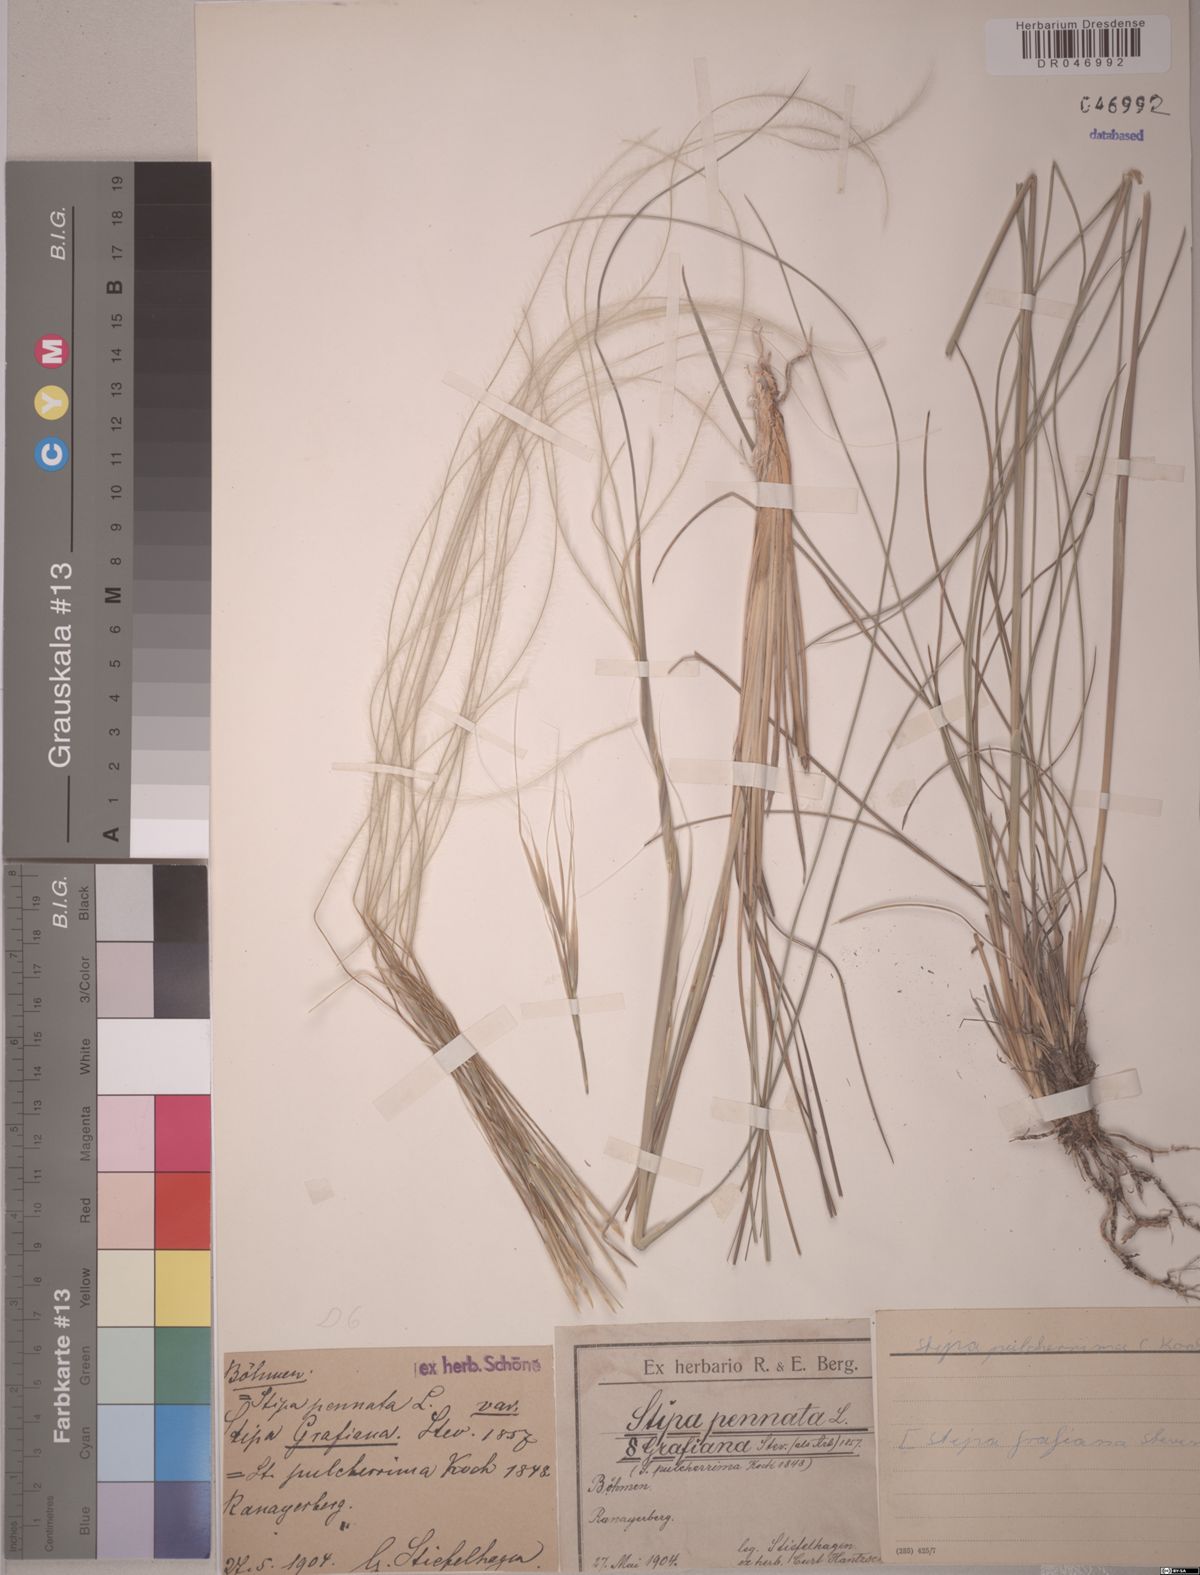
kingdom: Plantae
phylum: Tracheophyta
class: Liliopsida
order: Poales
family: Poaceae
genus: Stipa
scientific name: Stipa pulcherrima
